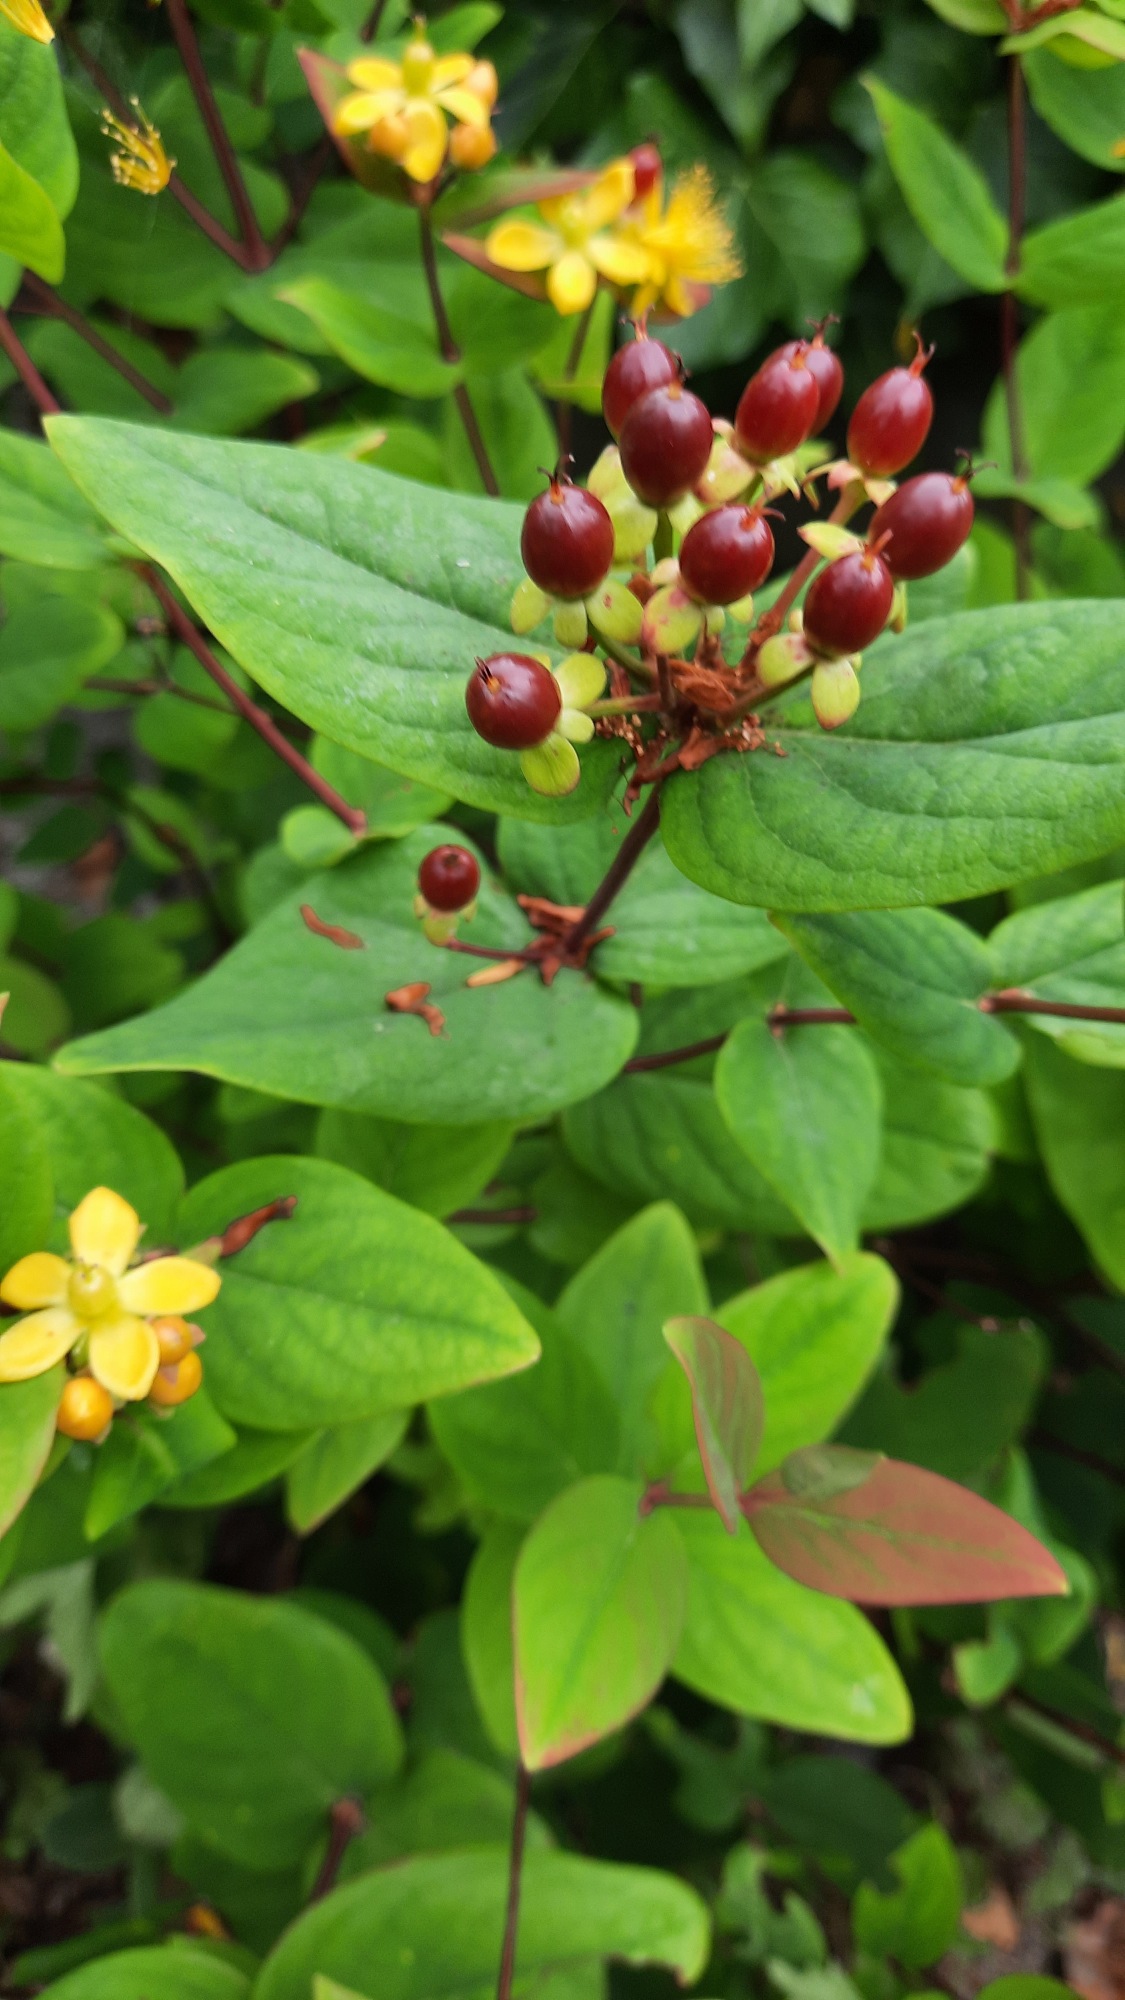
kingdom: Plantae
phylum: Tracheophyta
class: Magnoliopsida
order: Malpighiales
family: Hypericaceae
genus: Hypericum
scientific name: Hypericum inodorum
